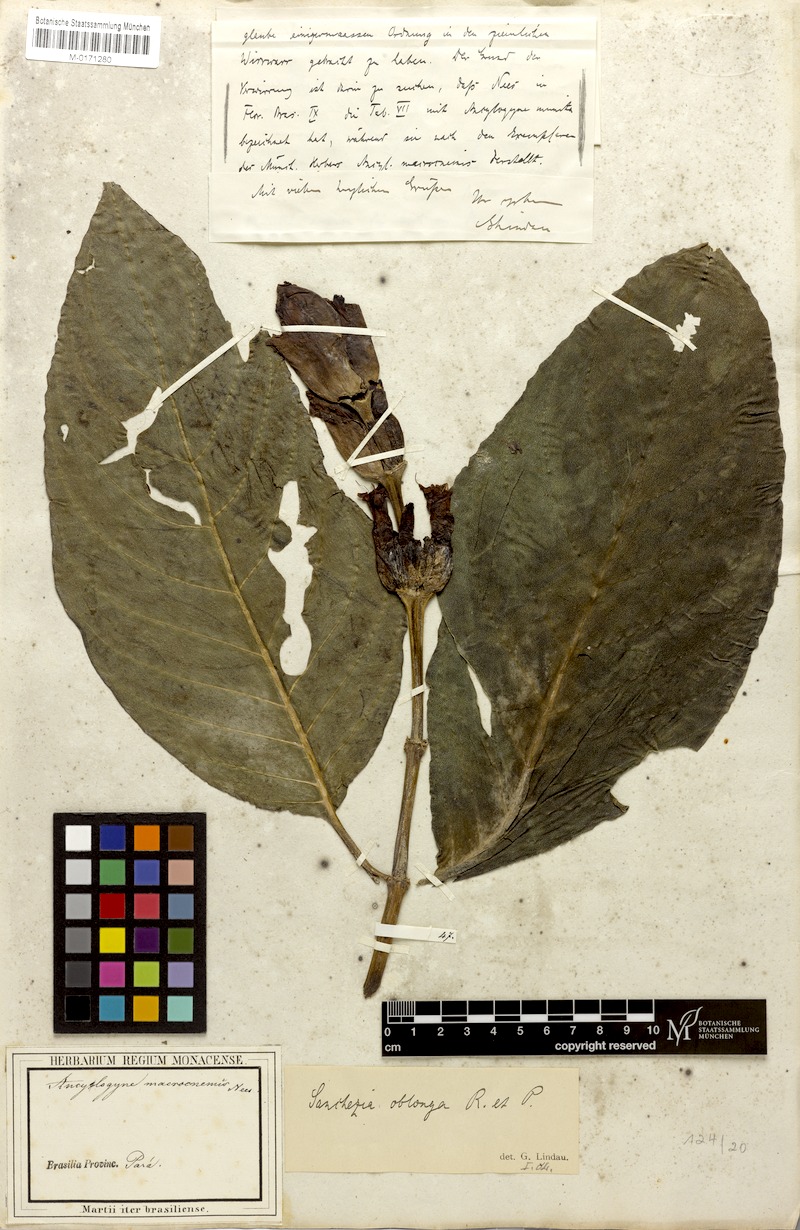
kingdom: Plantae
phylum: Tracheophyta
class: Magnoliopsida
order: Lamiales
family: Acanthaceae
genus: Sanchezia
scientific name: Sanchezia macrocnemis
